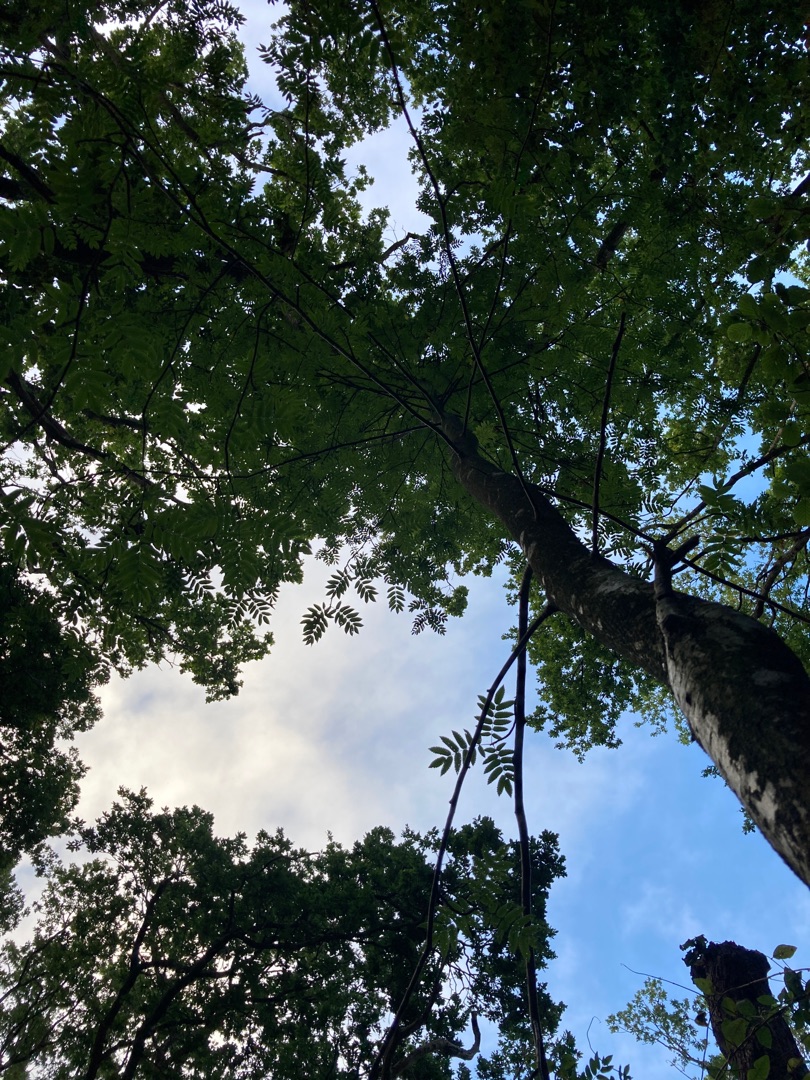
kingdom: Plantae
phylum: Tracheophyta
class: Magnoliopsida
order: Lamiales
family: Oleaceae
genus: Fraxinus
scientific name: Fraxinus excelsior
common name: Ask
